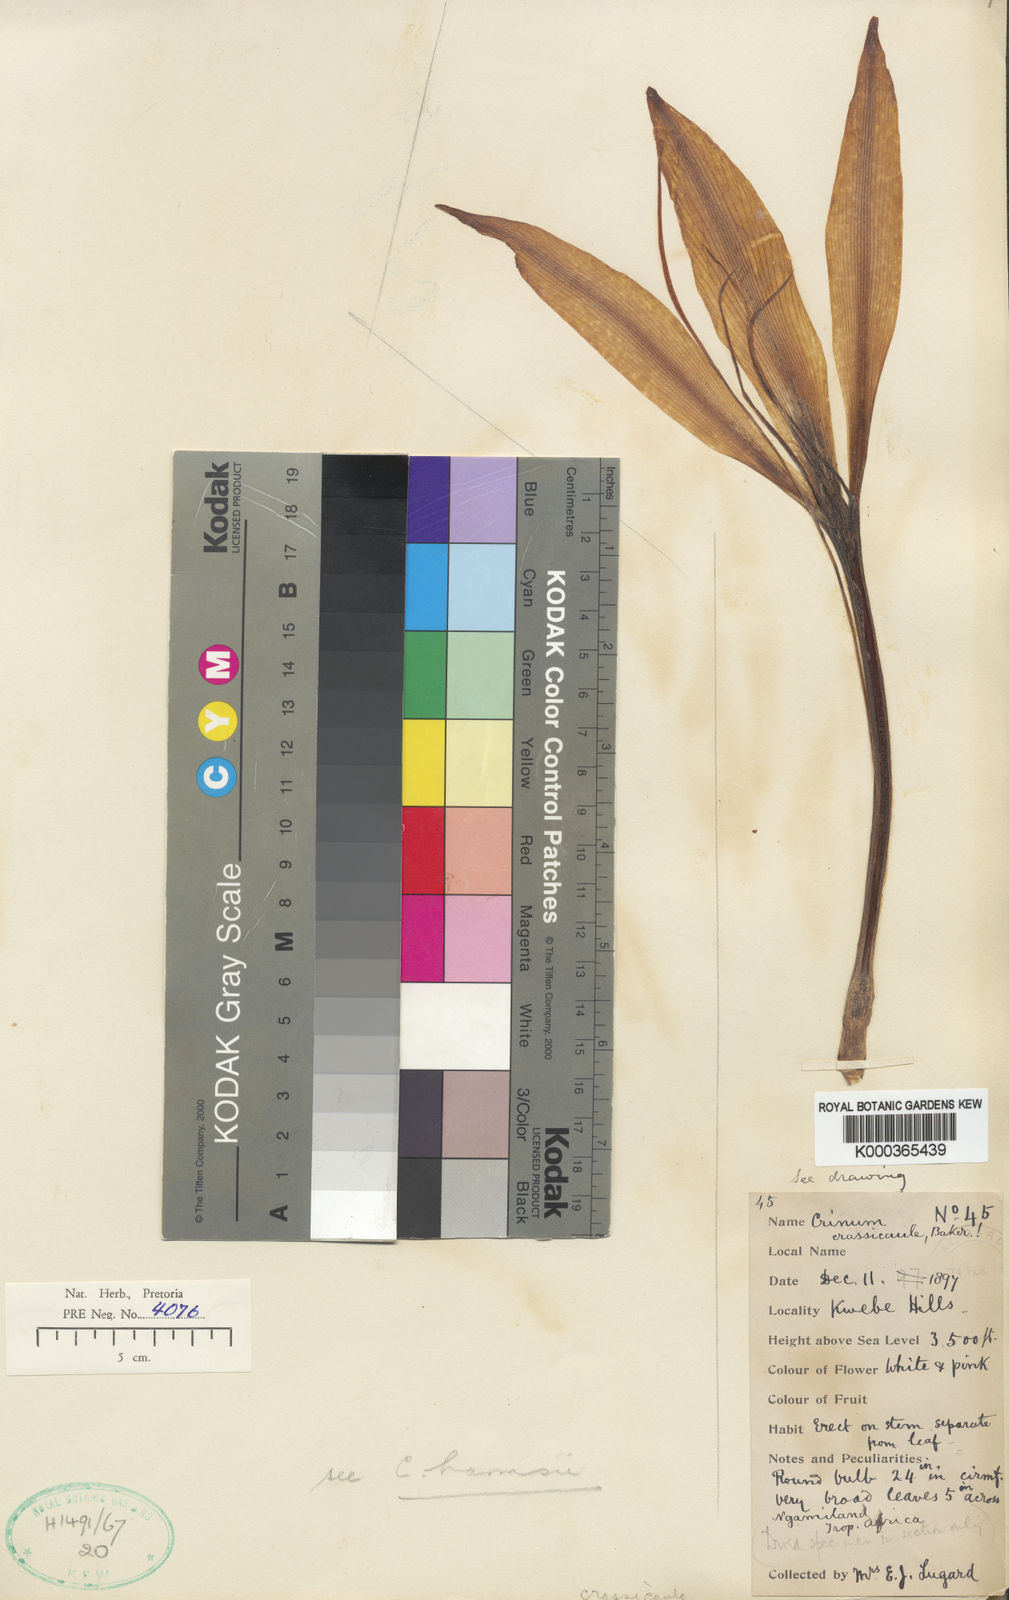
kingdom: Plantae
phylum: Tracheophyta
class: Liliopsida
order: Asparagales
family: Amaryllidaceae
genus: Crinum
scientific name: Crinum crassicaule
